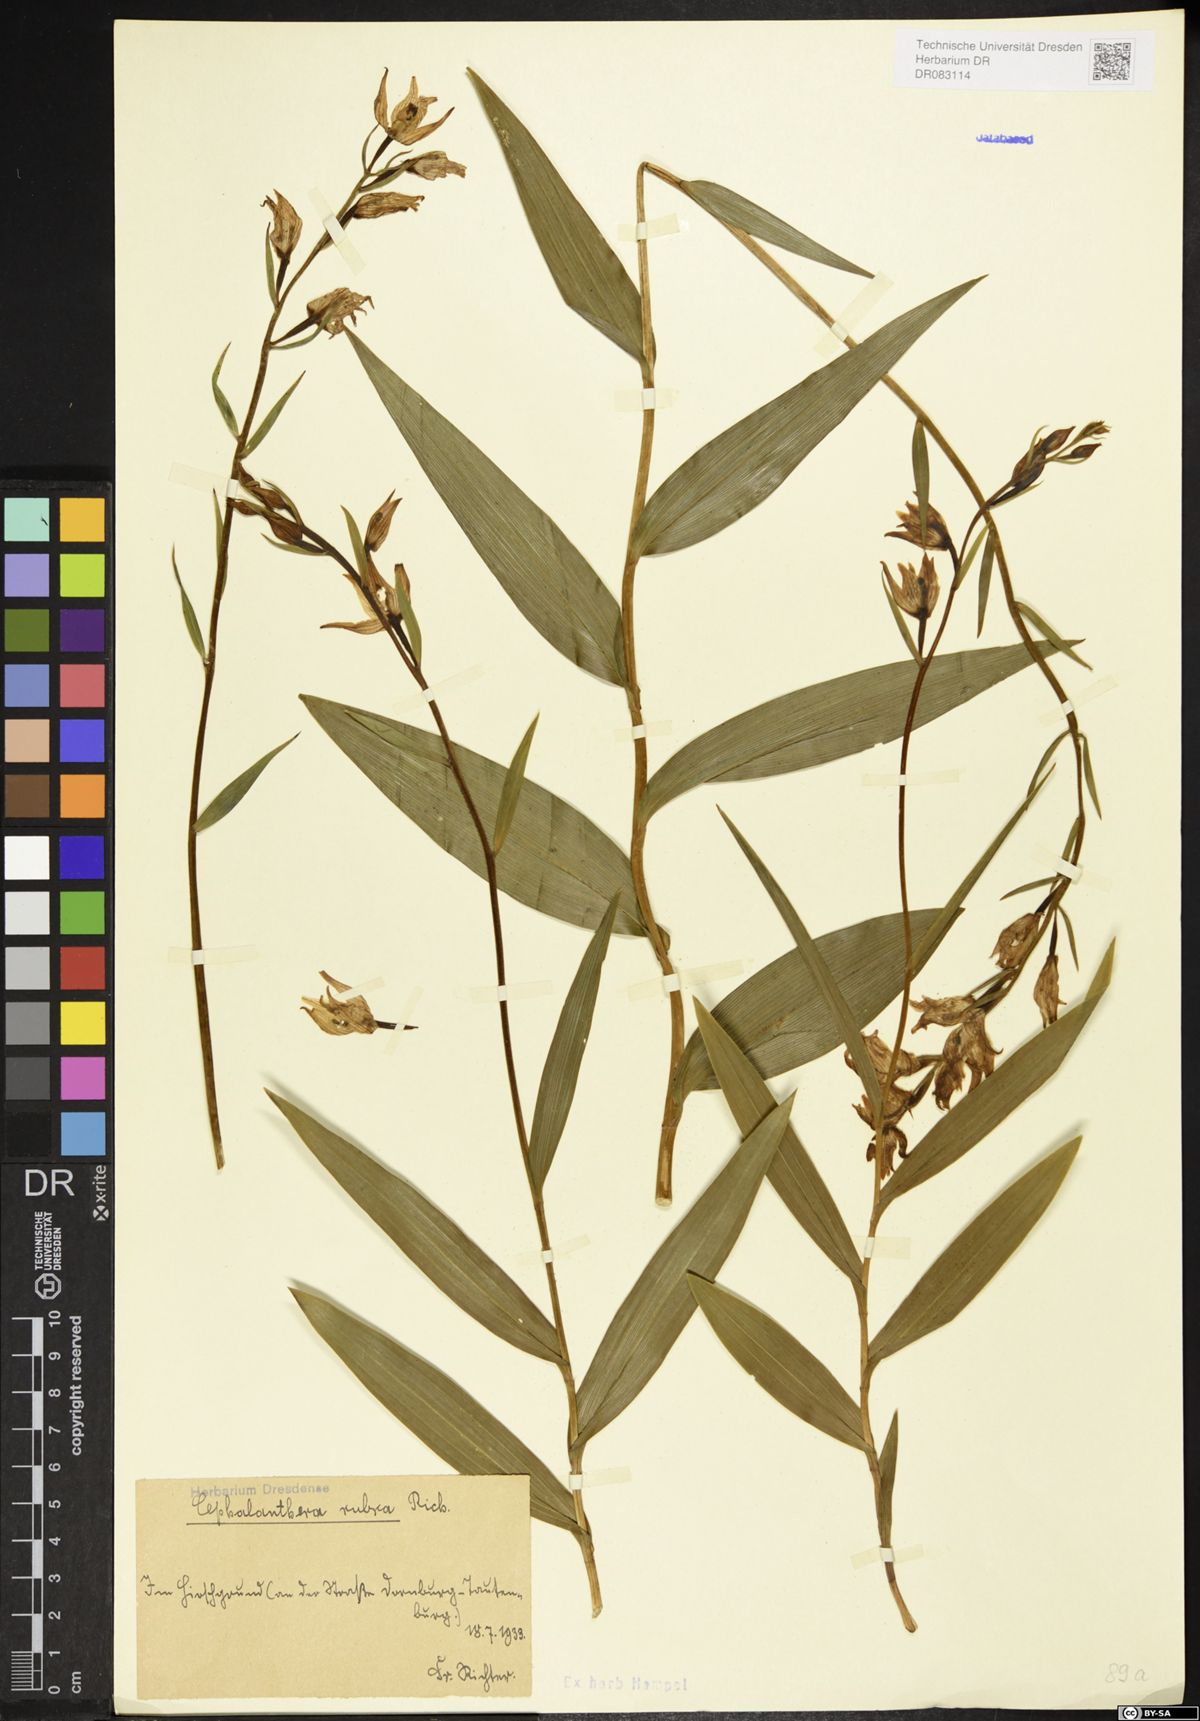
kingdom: Plantae
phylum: Tracheophyta
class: Liliopsida
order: Asparagales
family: Orchidaceae
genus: Cephalanthera
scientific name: Cephalanthera rubra
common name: Red helleborine
